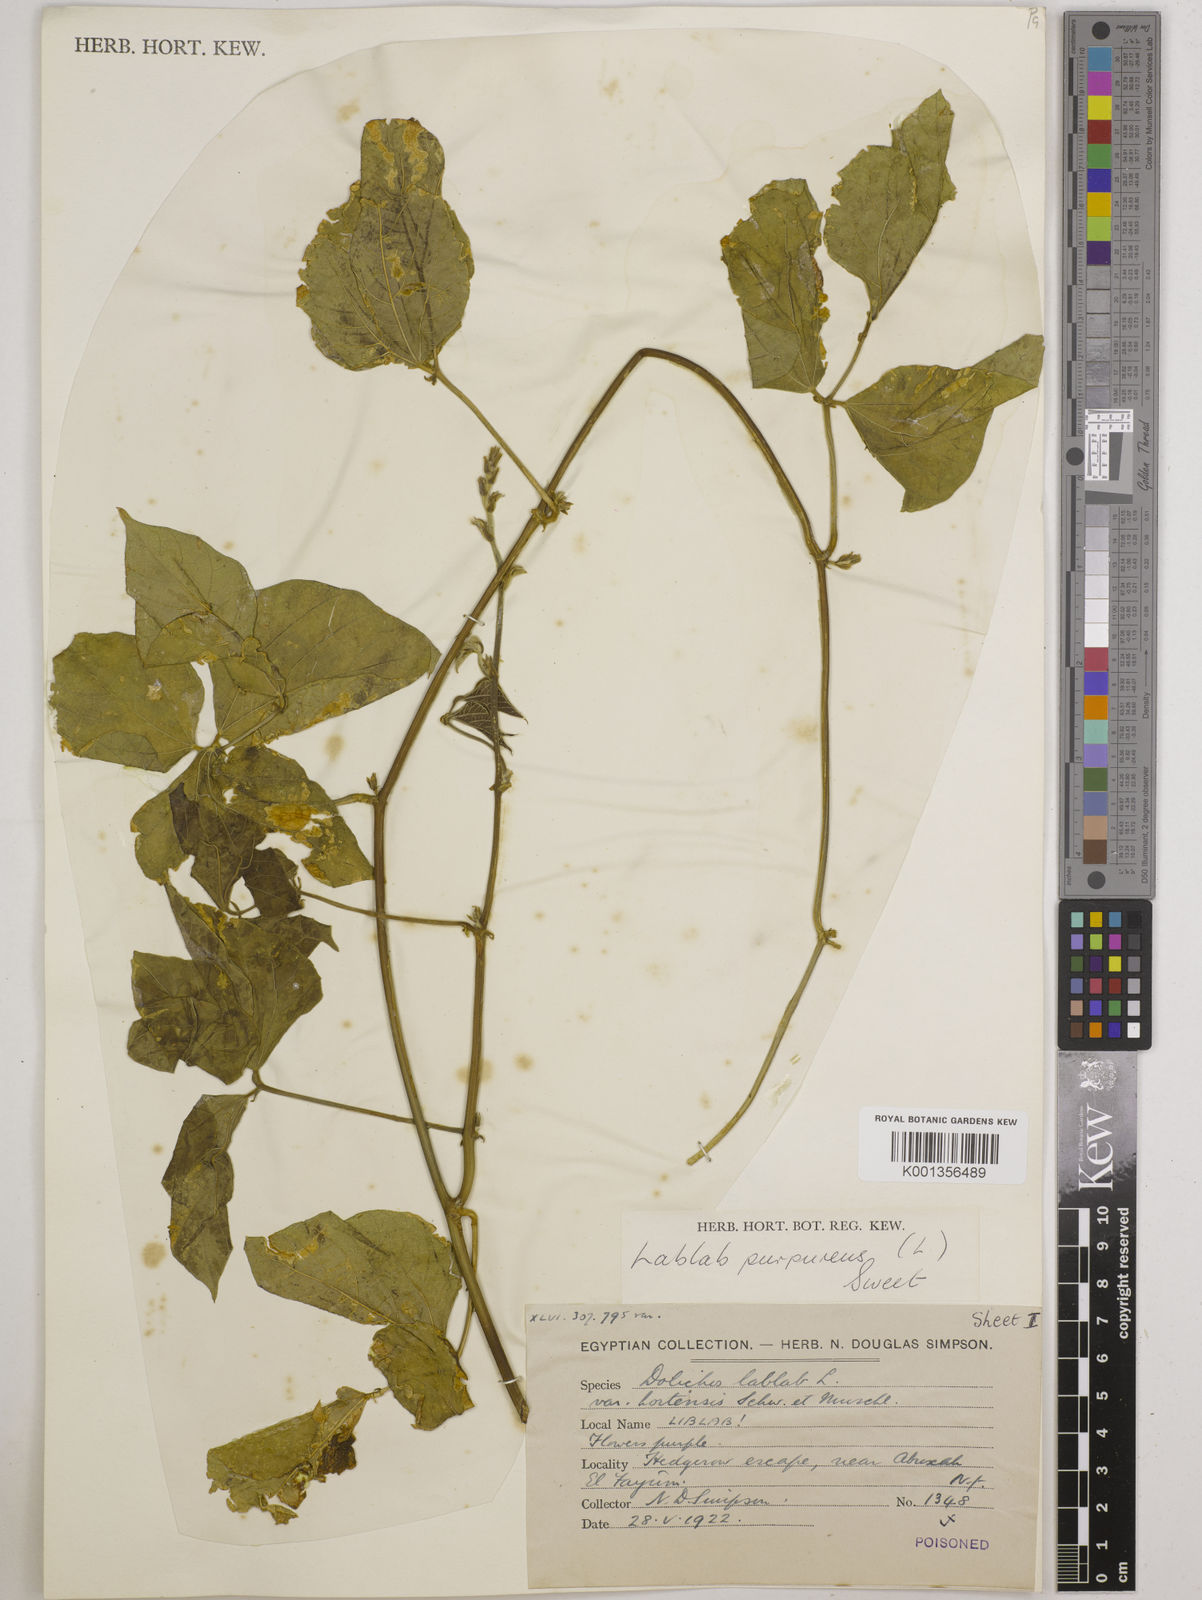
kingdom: Plantae
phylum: Tracheophyta
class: Magnoliopsida
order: Fabales
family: Fabaceae
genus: Lablab
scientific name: Lablab purpureus
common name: Lablab-bean
